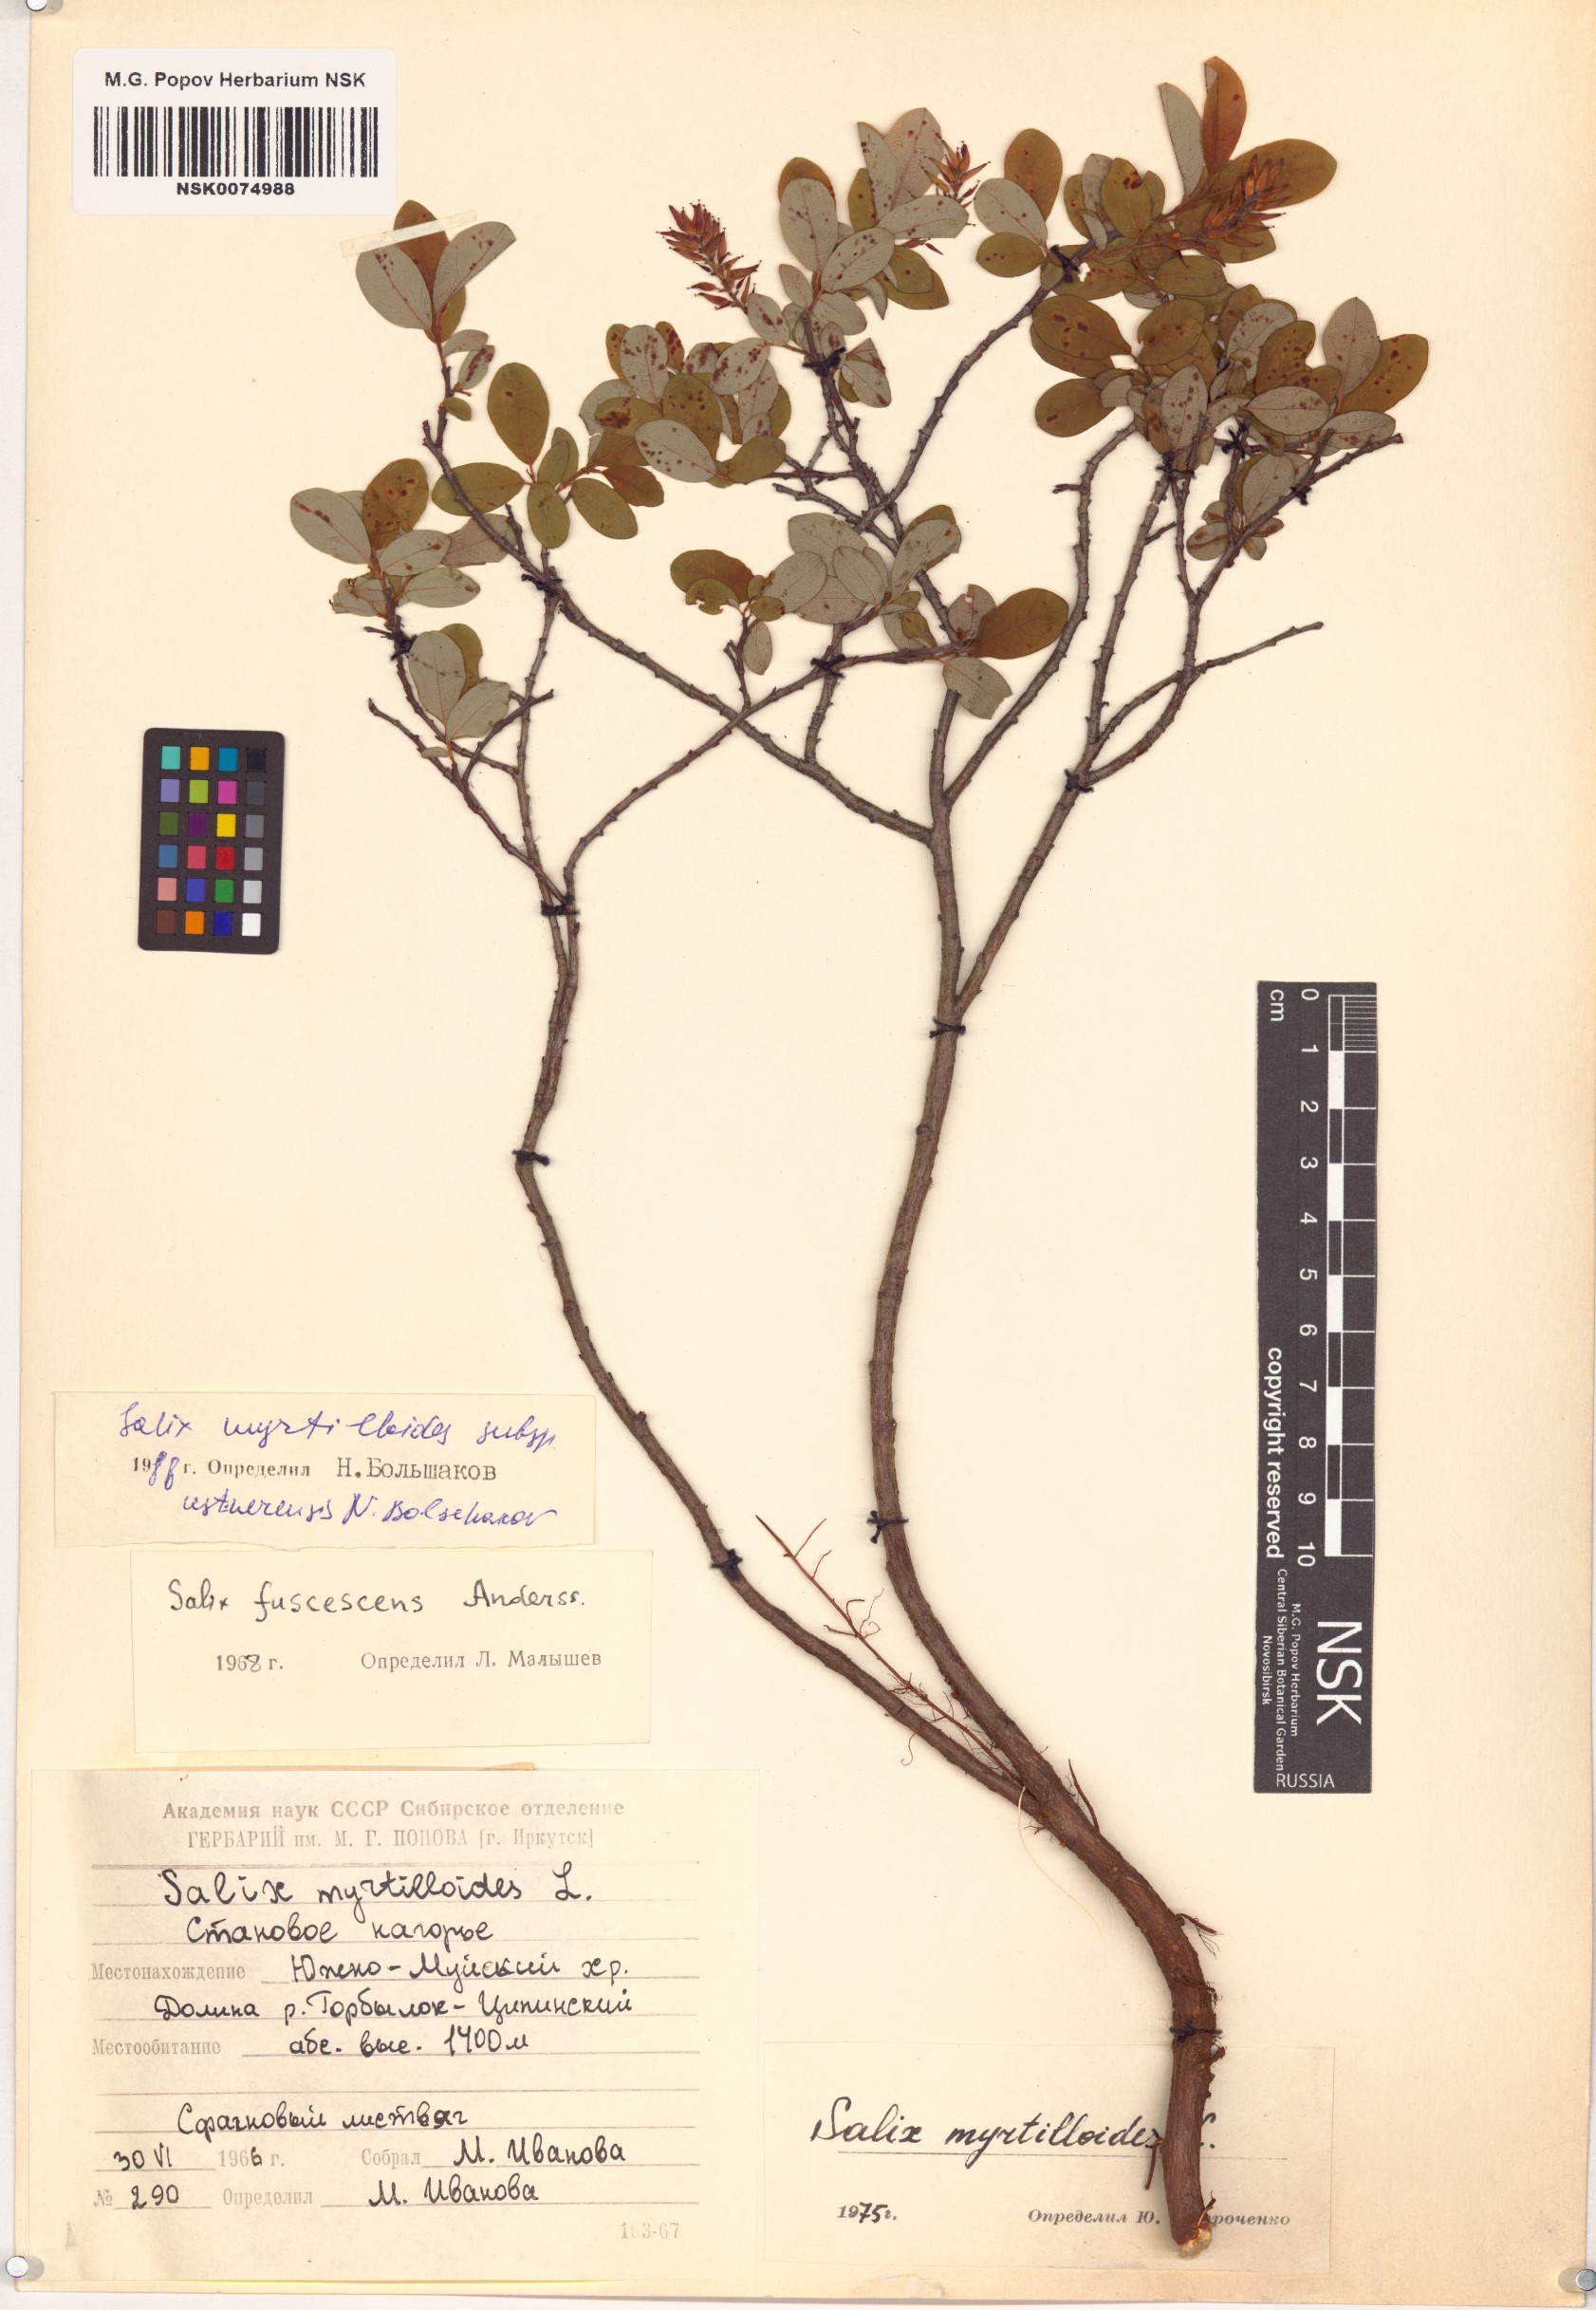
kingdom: Plantae
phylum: Tracheophyta
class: Magnoliopsida
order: Malpighiales
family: Salicaceae
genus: Salix
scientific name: Salix ustnerensis
